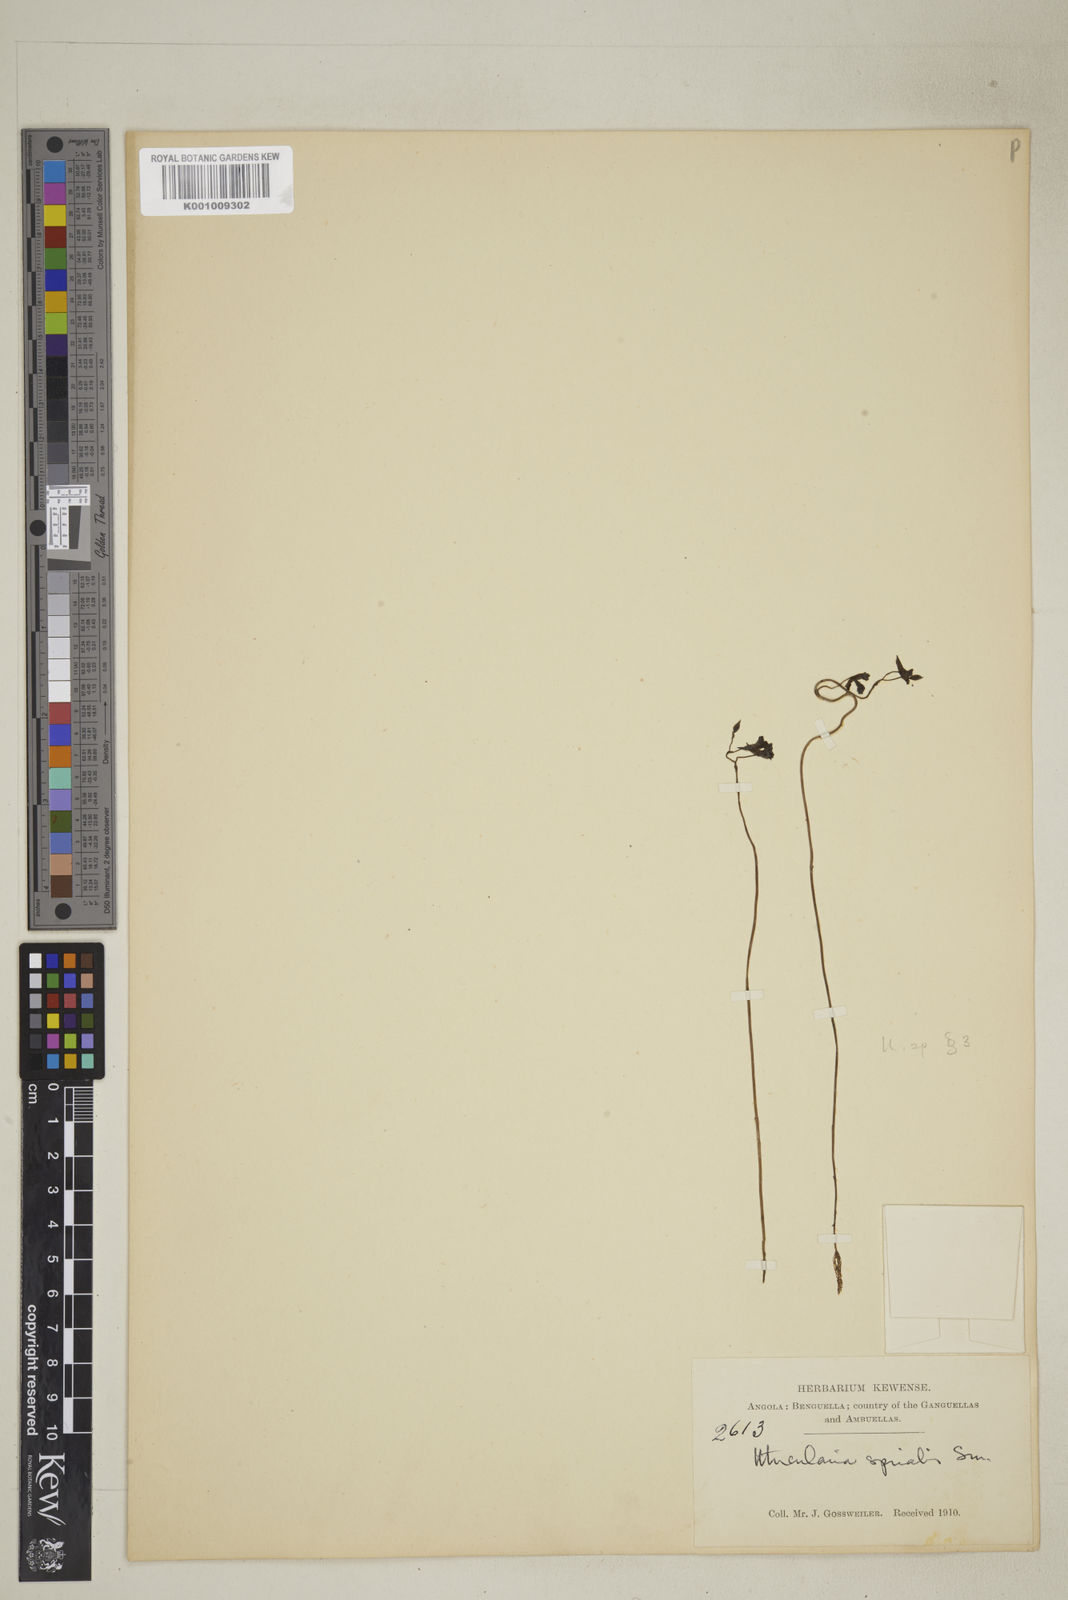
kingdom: Plantae
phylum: Tracheophyta
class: Magnoliopsida
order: Lamiales
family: Lentibulariaceae
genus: Utricularia
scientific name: Utricularia spiralis
